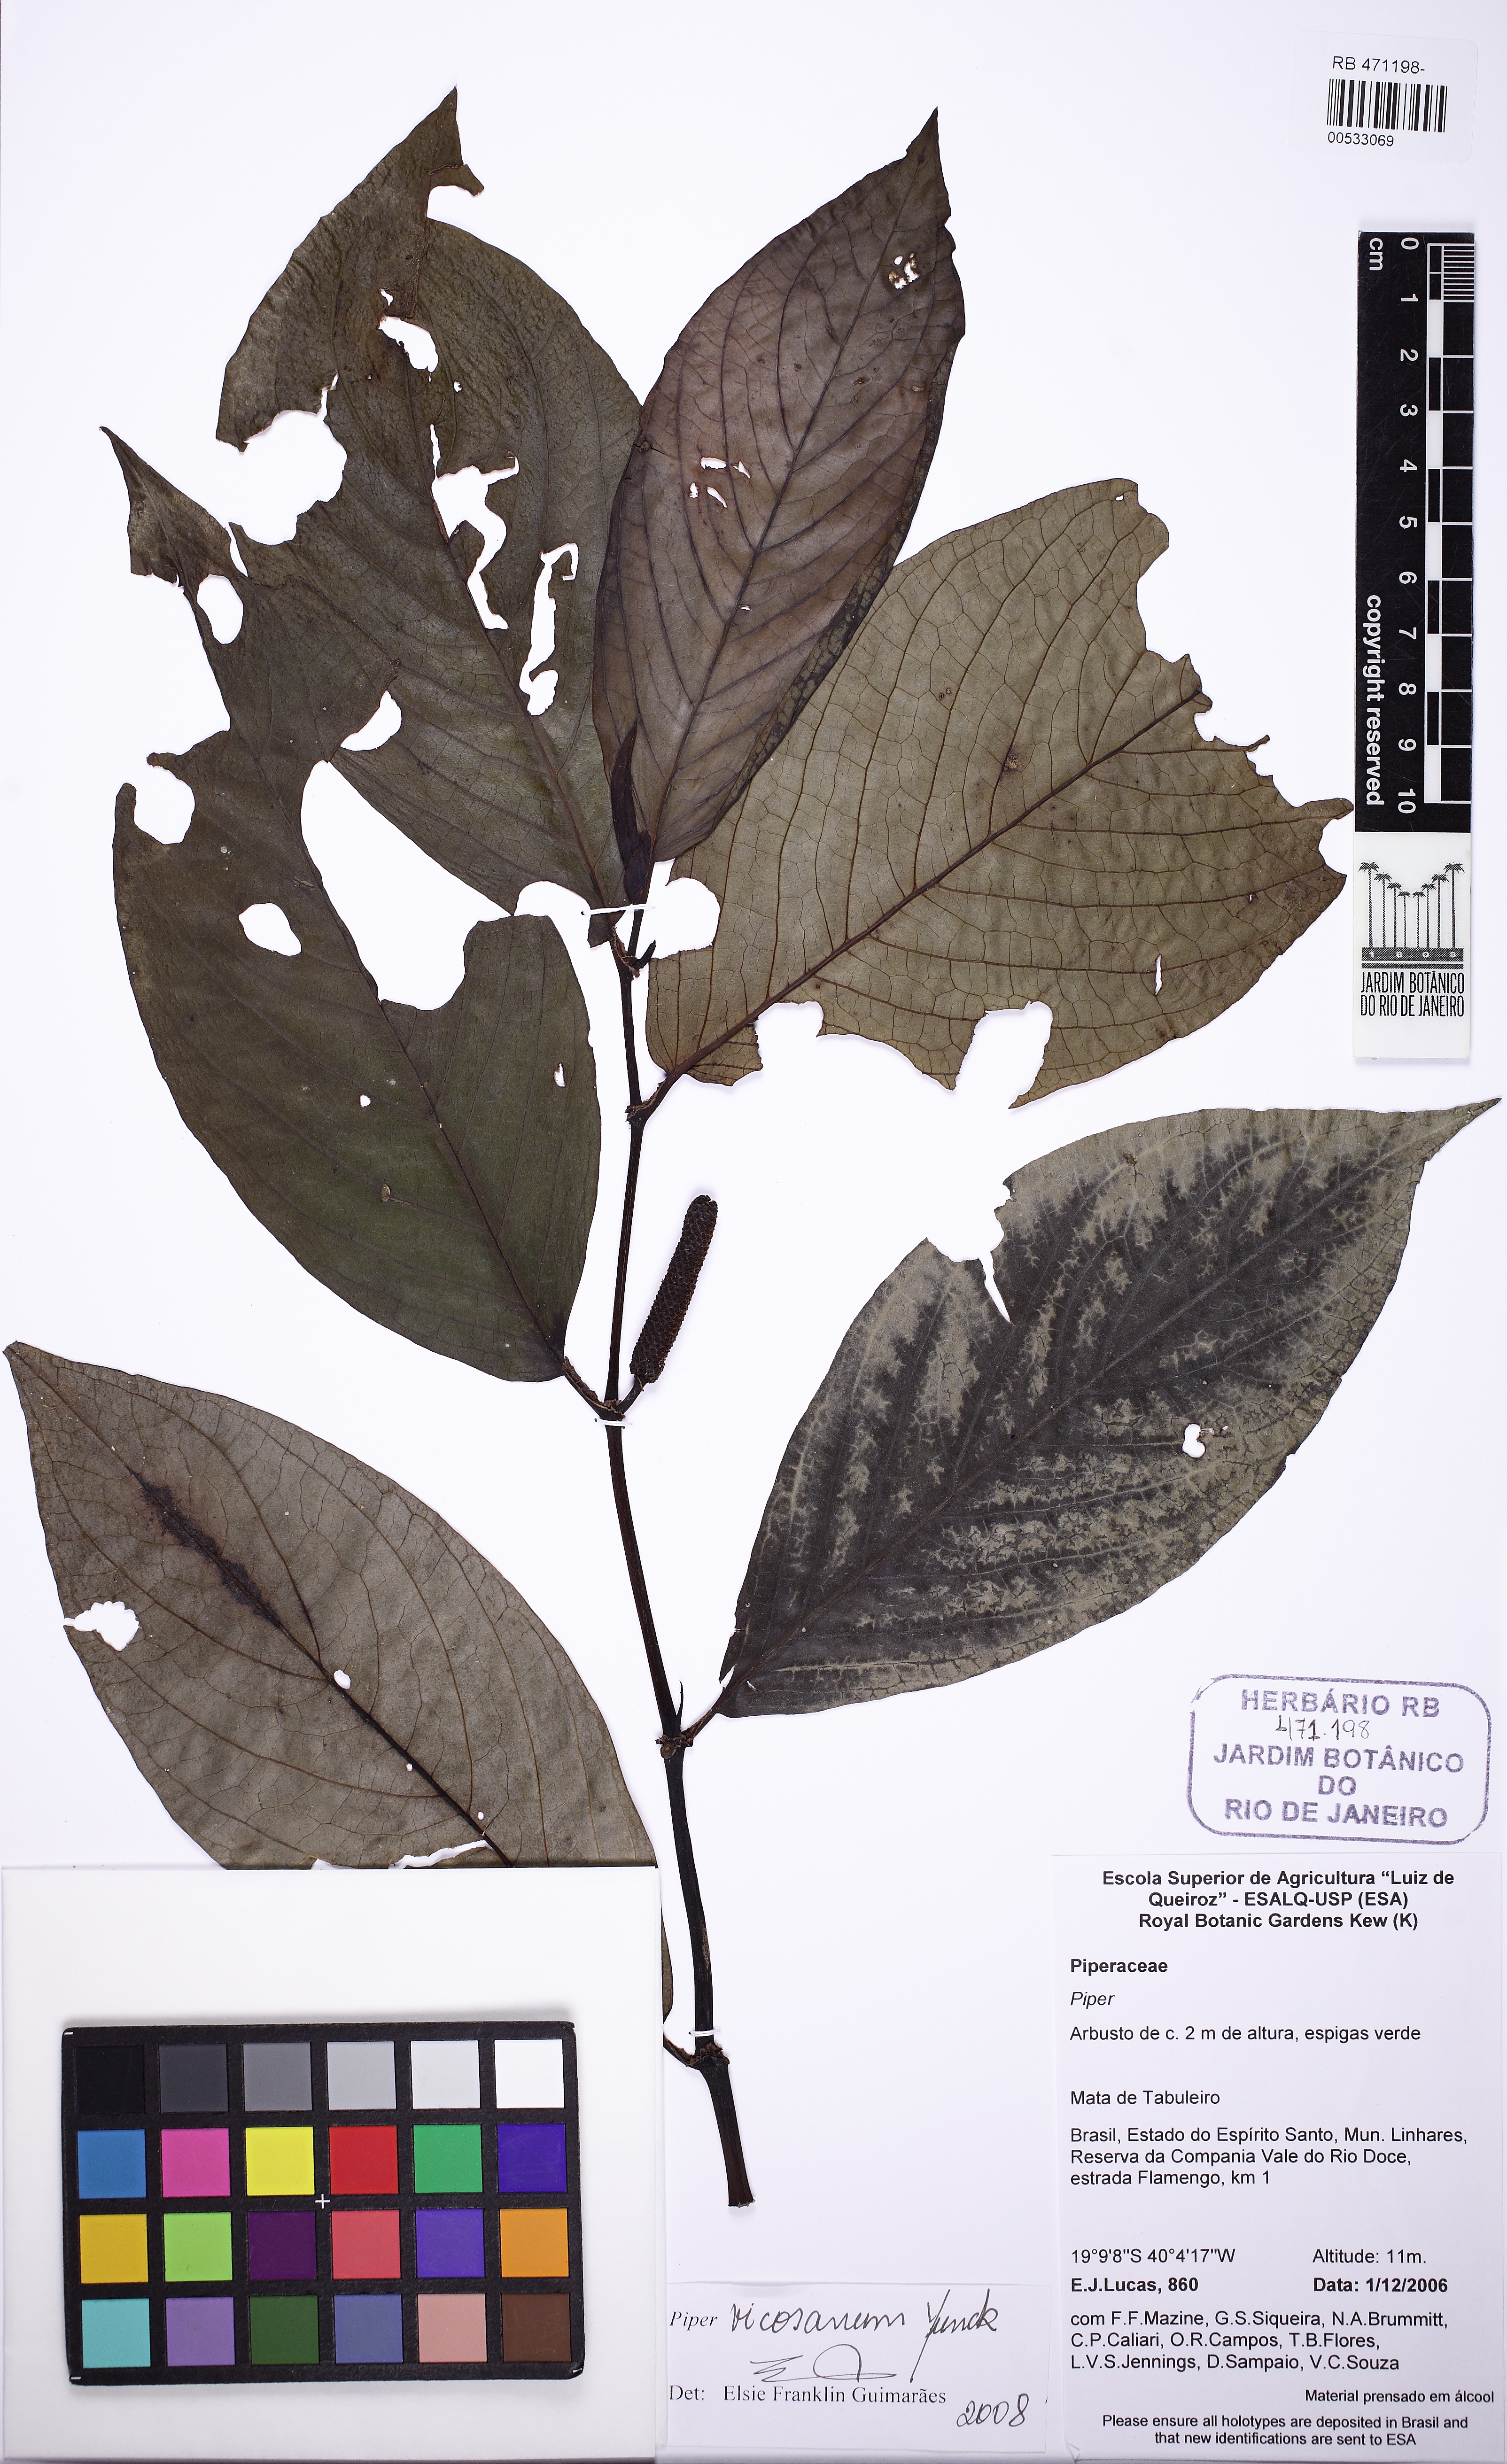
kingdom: Plantae
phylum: Tracheophyta
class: Magnoliopsida
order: Piperales
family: Piperaceae
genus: Piper
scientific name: Piper vicosanum
